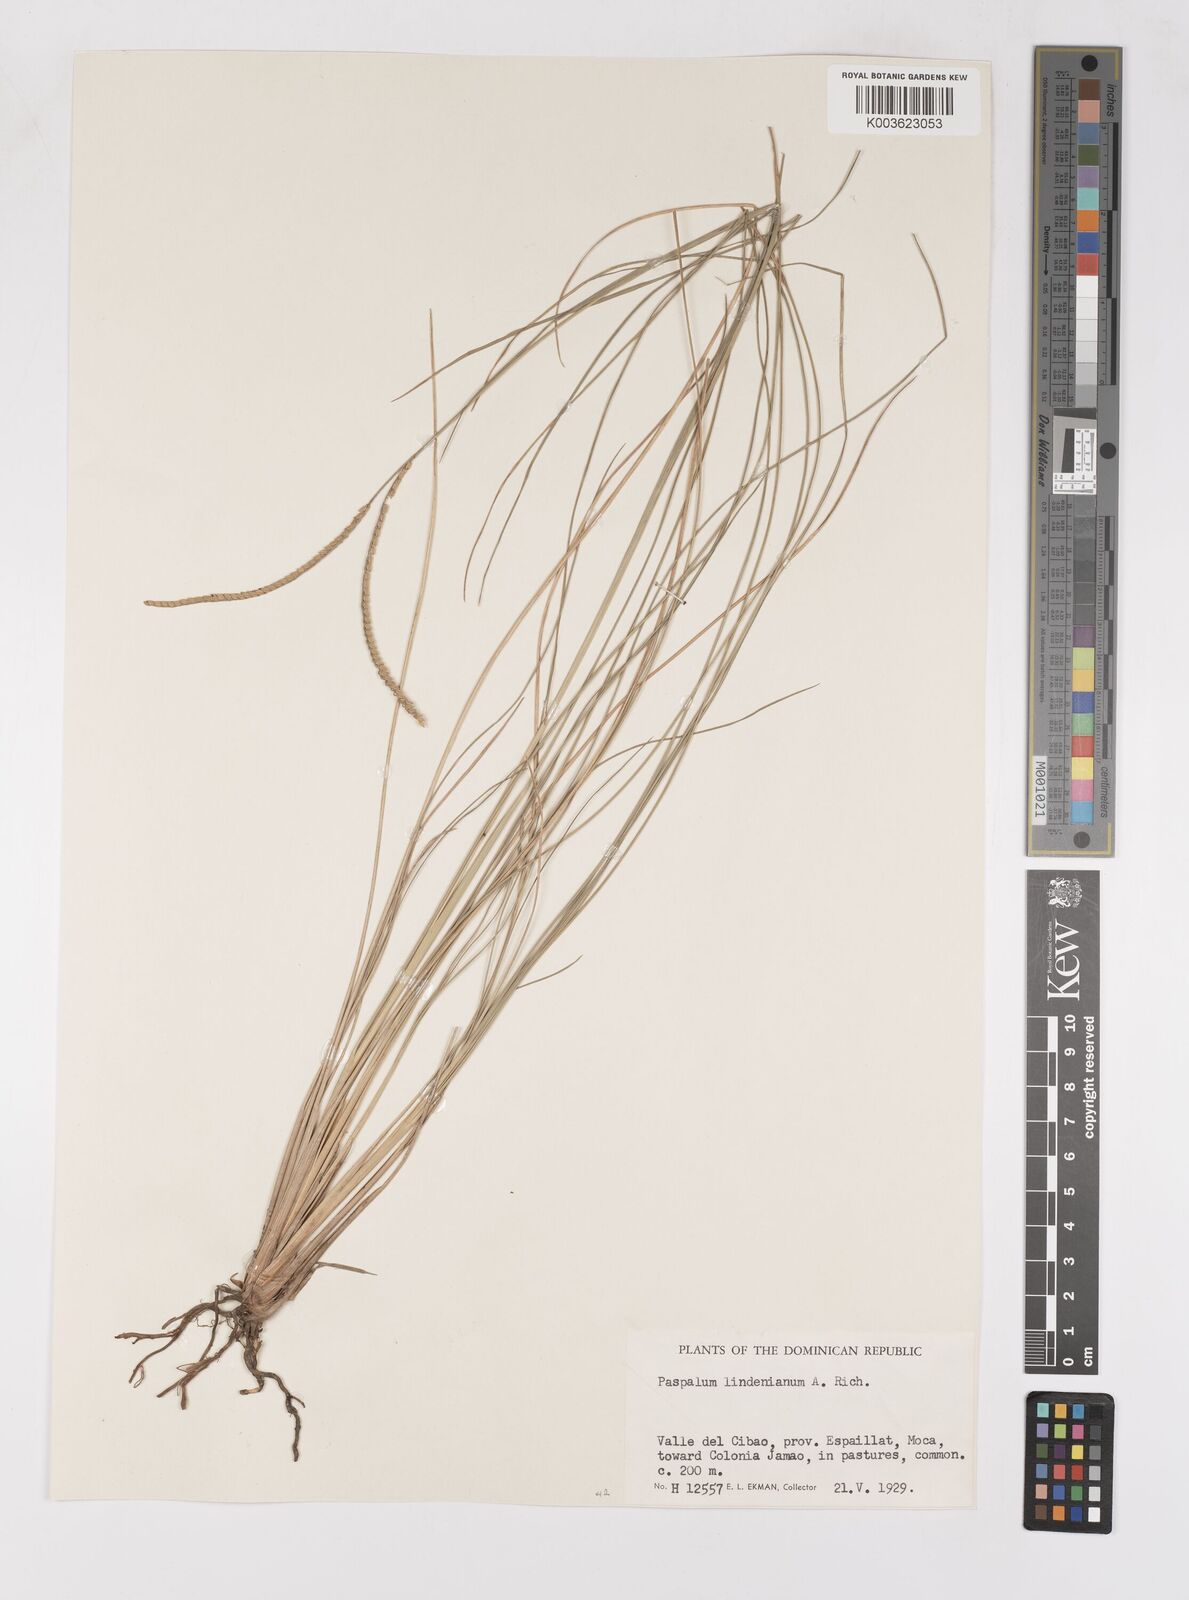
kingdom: Plantae
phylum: Tracheophyta
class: Liliopsida
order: Poales
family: Poaceae
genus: Paspalum
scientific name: Paspalum lindenianum
